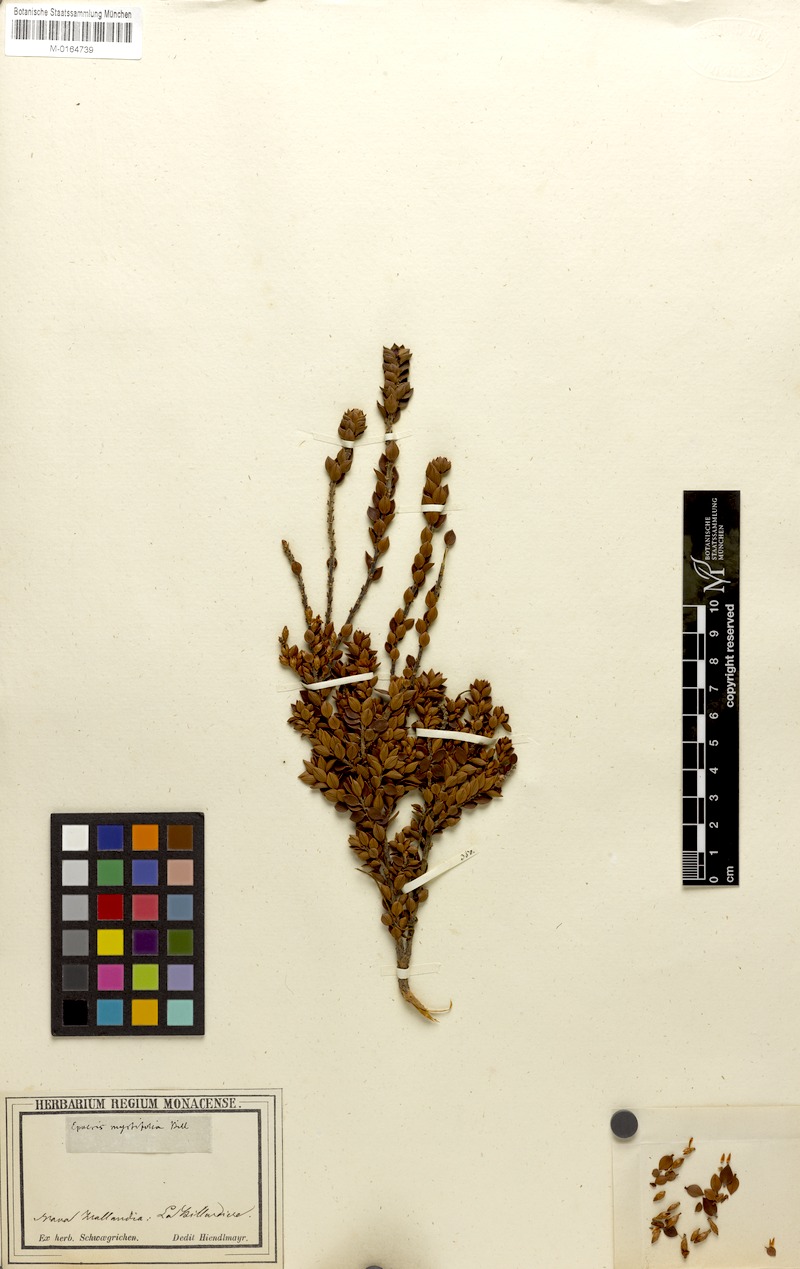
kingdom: Plantae
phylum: Tracheophyta
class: Magnoliopsida
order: Ericales
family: Ericaceae
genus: Epacris
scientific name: Epacris myrtifolia
